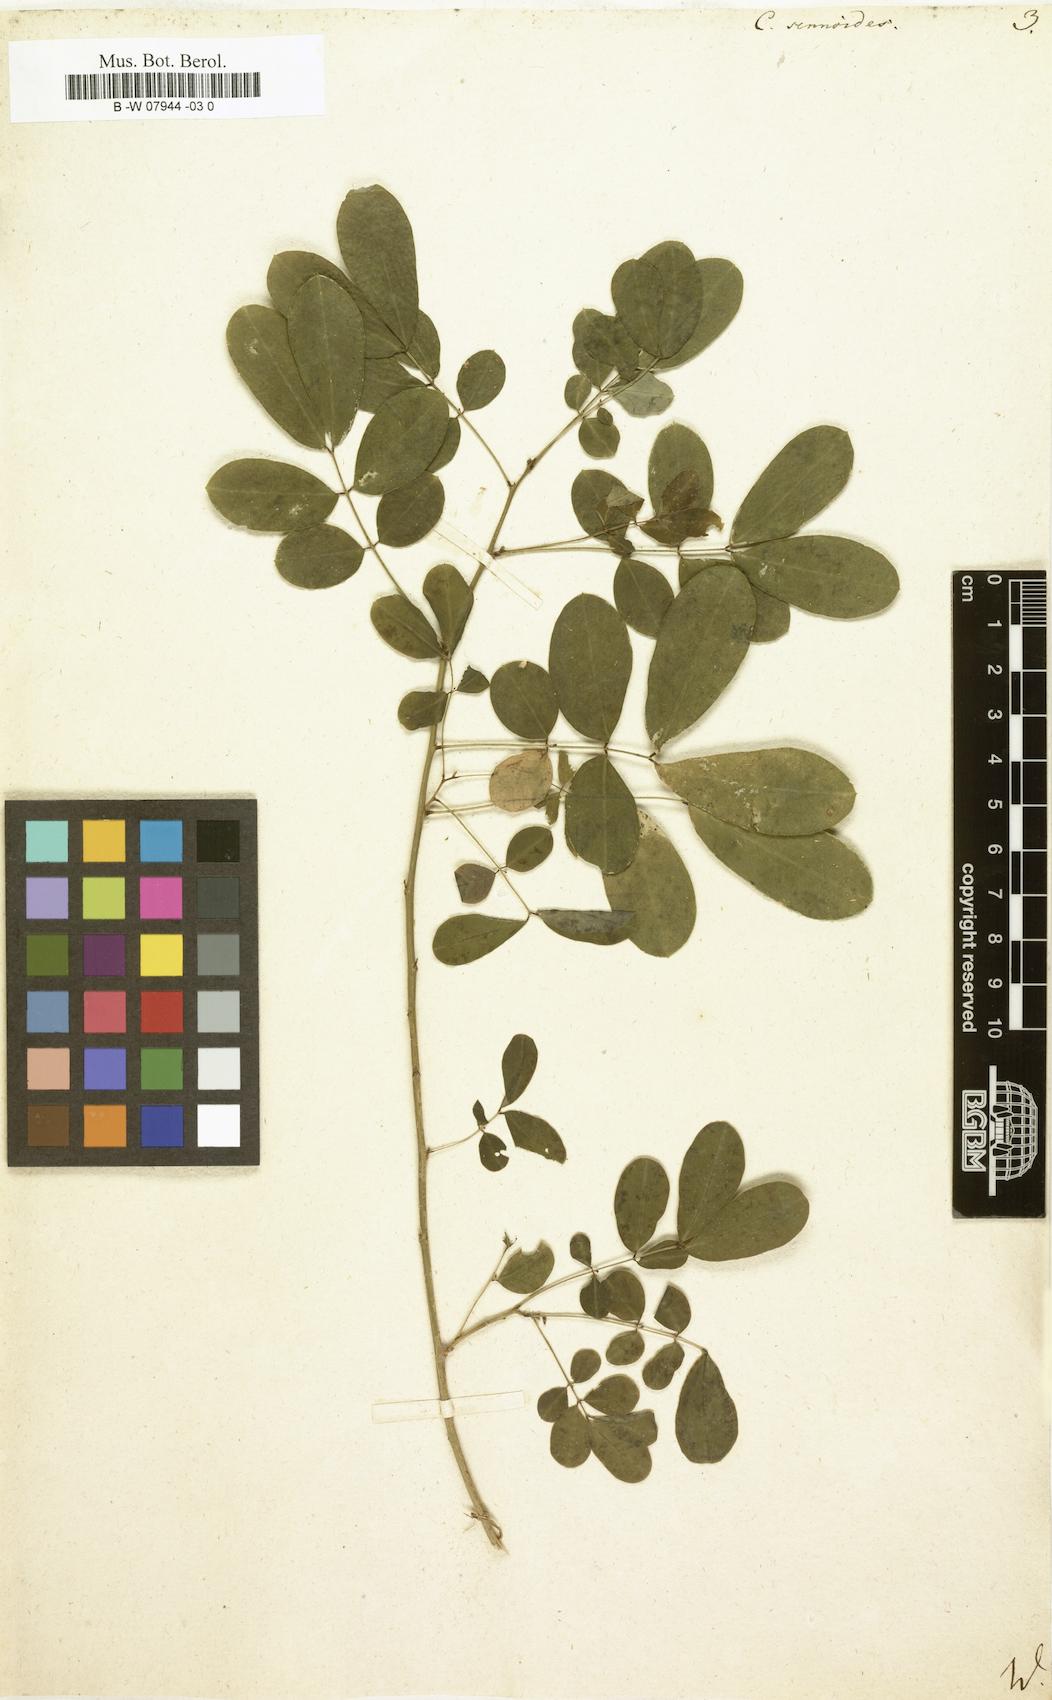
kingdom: Plantae
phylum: Tracheophyta
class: Magnoliopsida
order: Fabales
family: Fabaceae
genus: Senna
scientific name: Senna bicapsularis
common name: Christmasbush
